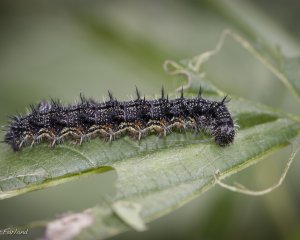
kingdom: Animalia
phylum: Arthropoda
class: Insecta
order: Lepidoptera
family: Nymphalidae
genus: Aglais
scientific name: Aglais milberti
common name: Milbert's Tortoiseshell
